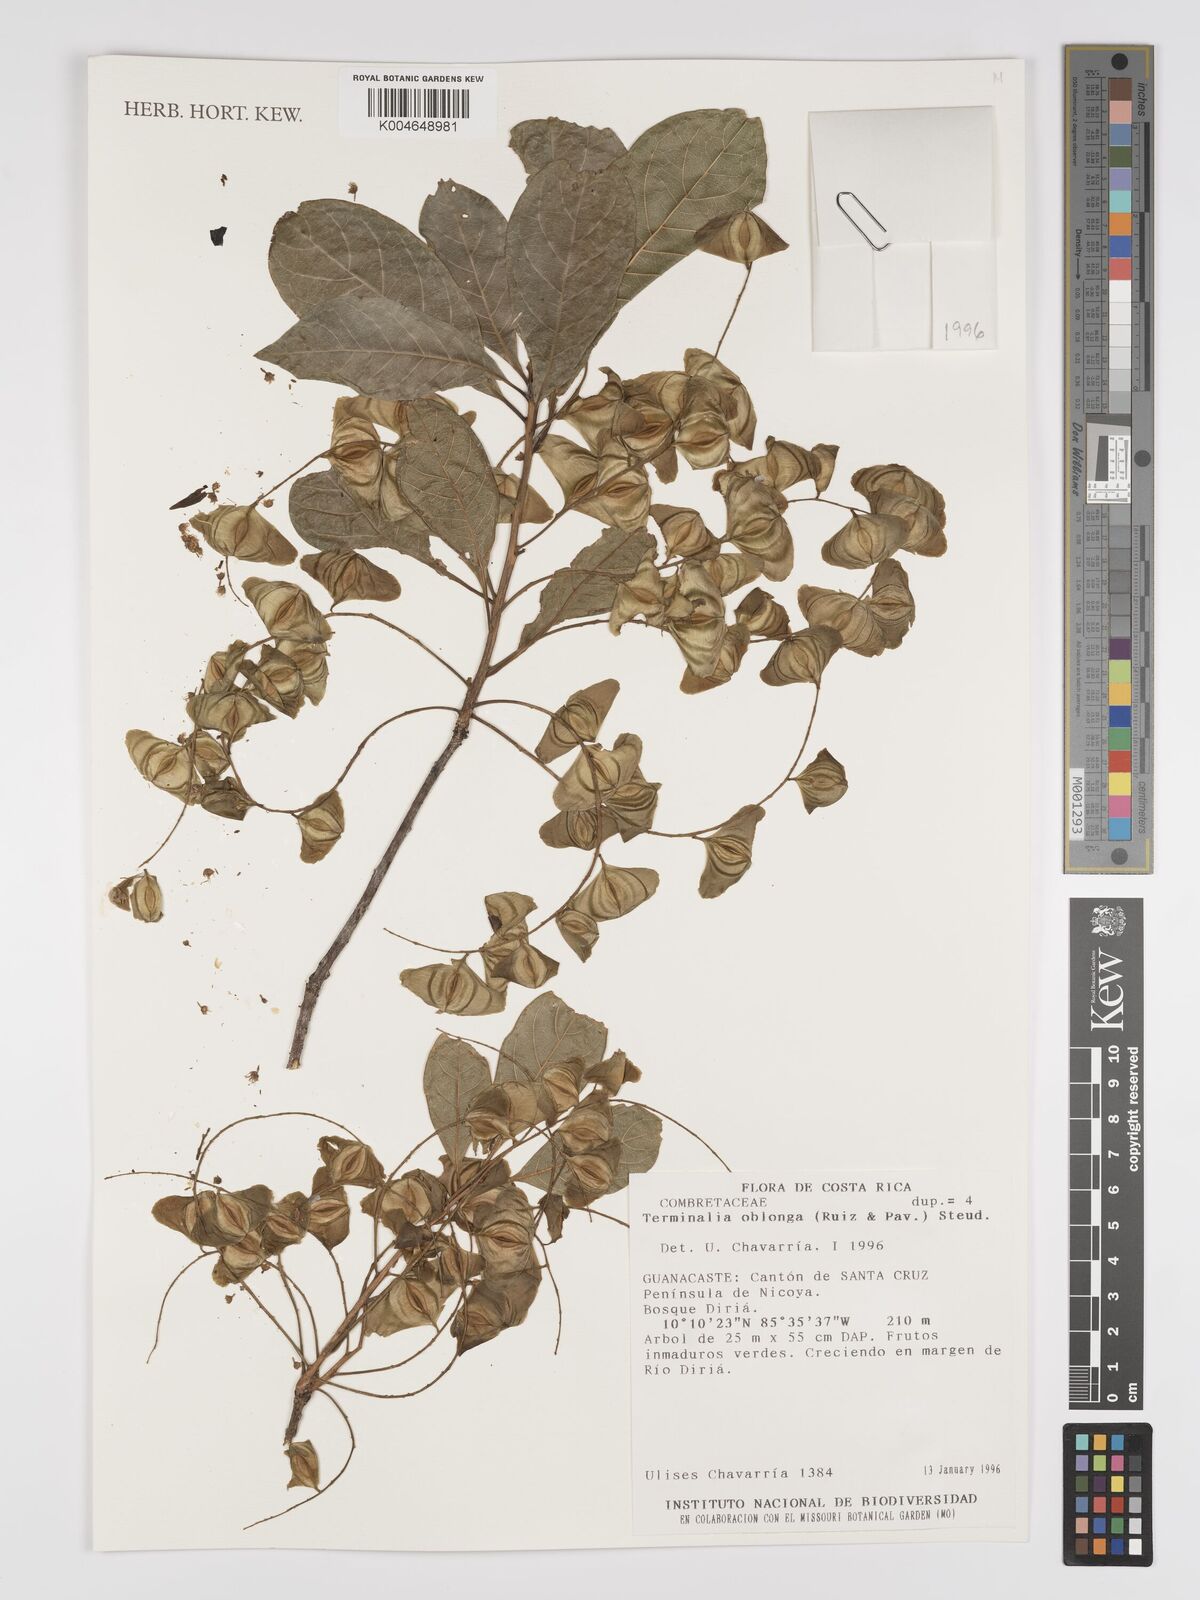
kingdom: Plantae
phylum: Tracheophyta
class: Magnoliopsida
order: Myrtales
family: Combretaceae
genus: Terminalia
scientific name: Terminalia oblonga
